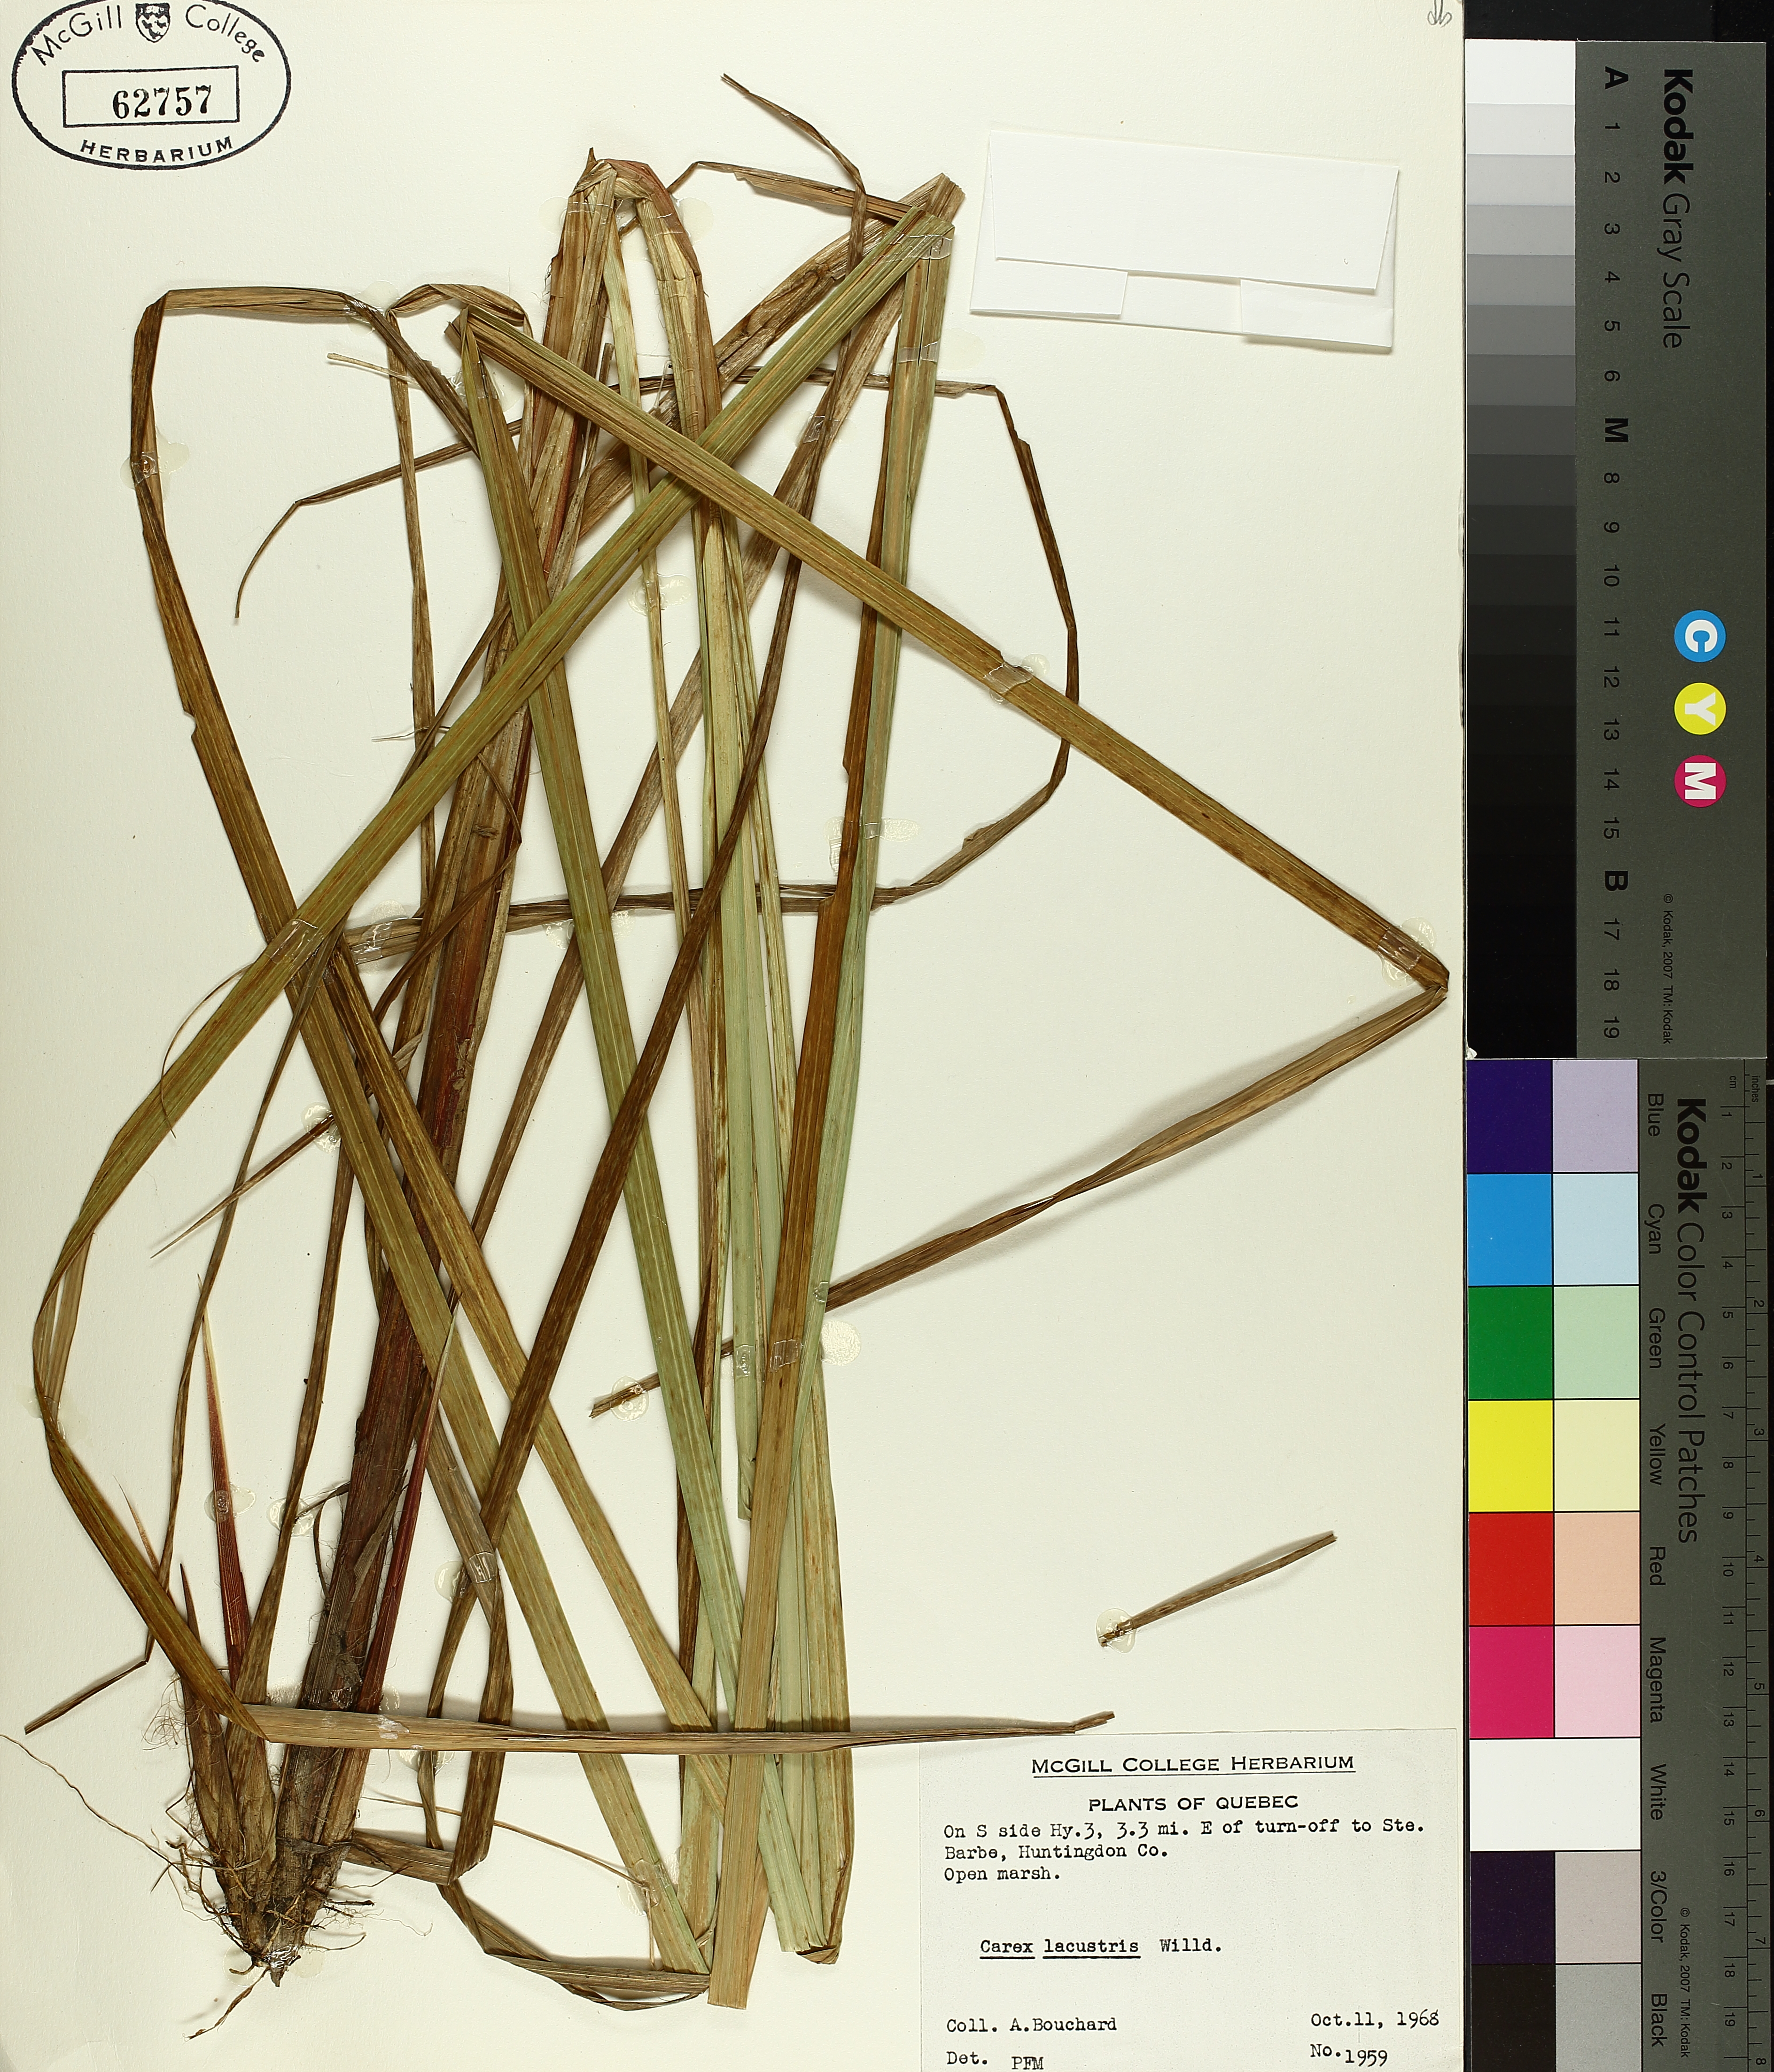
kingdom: Plantae
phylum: Tracheophyta
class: Liliopsida
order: Poales
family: Cyperaceae
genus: Carex
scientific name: Carex lacustris
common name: Common lake sedge
